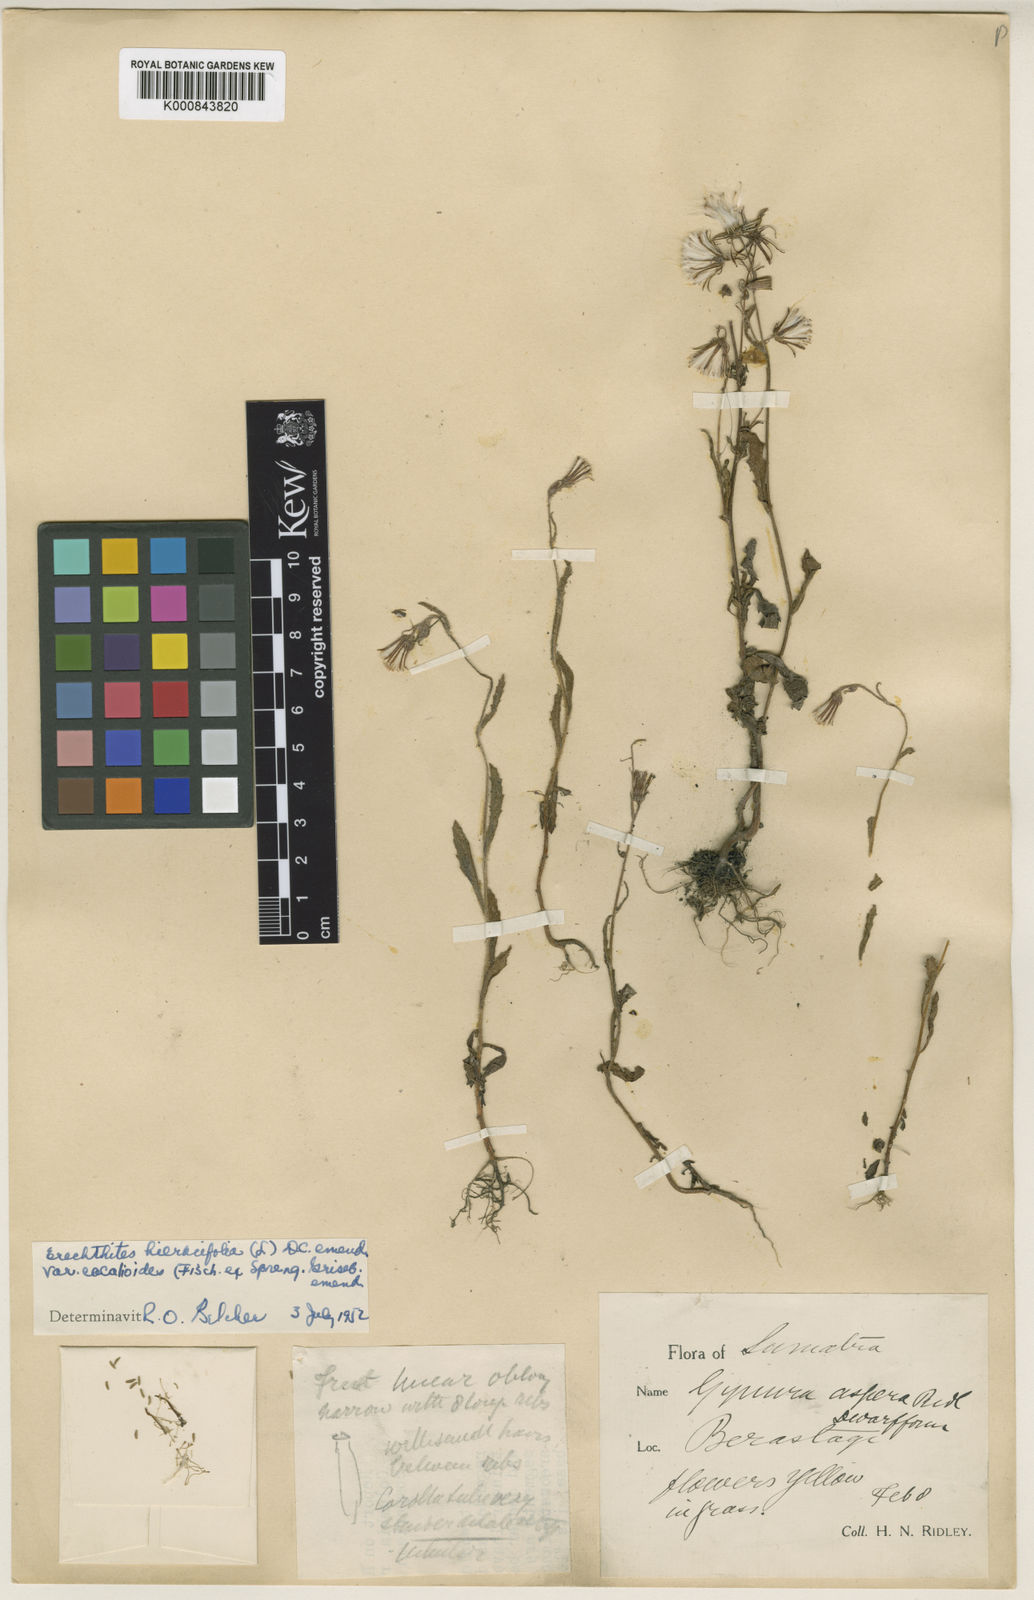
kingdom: Plantae
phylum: Tracheophyta
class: Magnoliopsida
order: Asterales
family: Asteraceae
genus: Erechtites
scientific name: Erechtites hieraciifolius
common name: American burnweed
